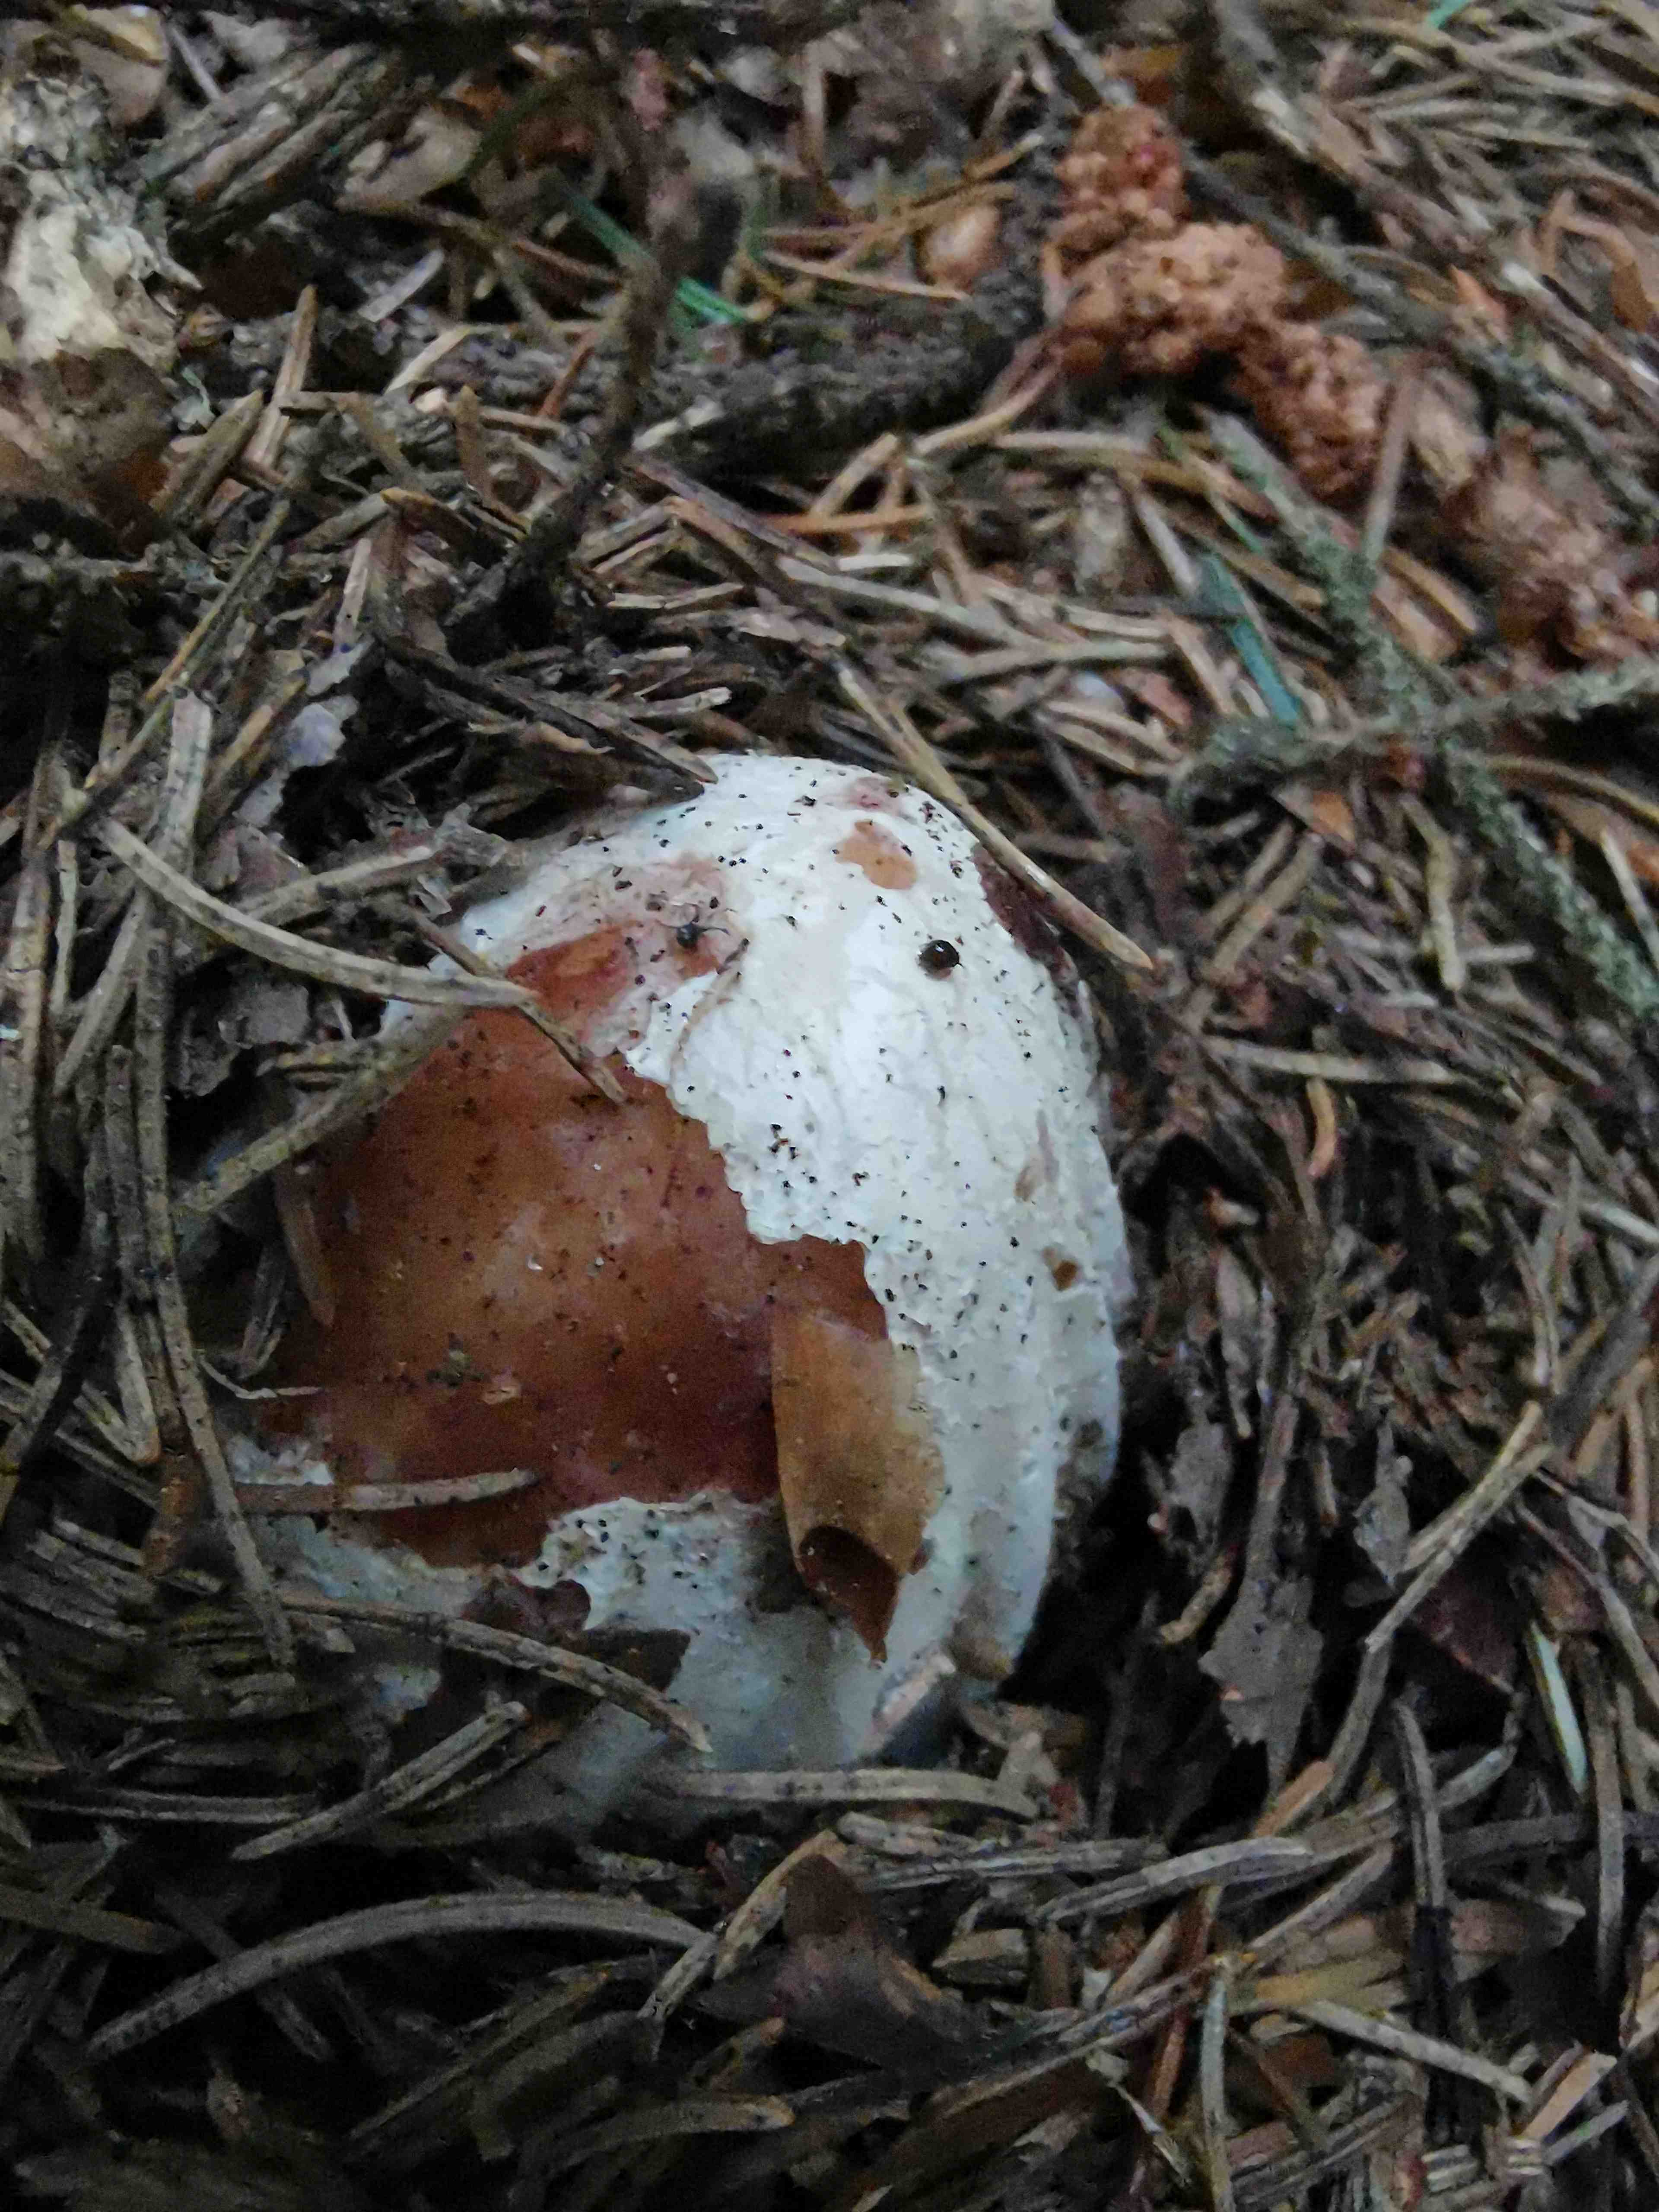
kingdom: Fungi
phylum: Basidiomycota
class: Agaricomycetes
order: Phallales
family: Phallaceae
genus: Phallus
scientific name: Phallus impudicus
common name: almindelig stinksvamp
